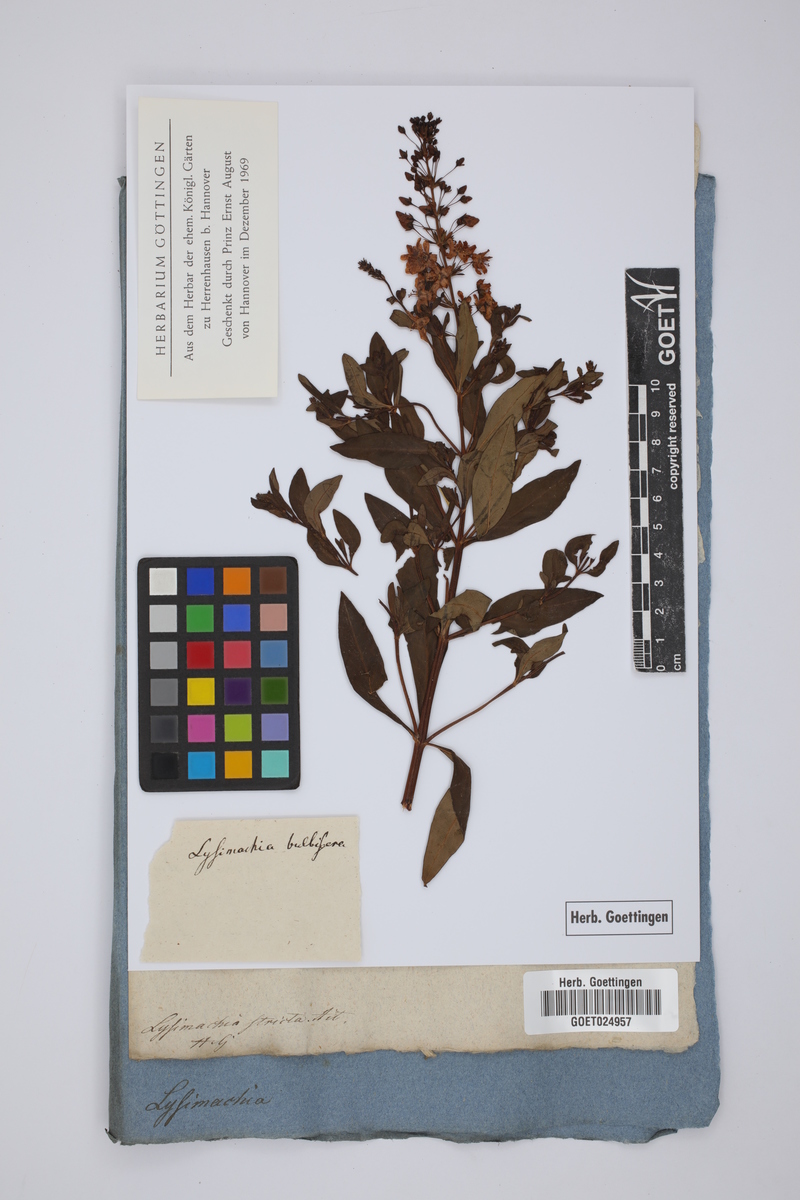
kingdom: Plantae
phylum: Tracheophyta
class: Magnoliopsida
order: Ericales
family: Primulaceae
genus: Lysimachia
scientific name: Lysimachia terrestris
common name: Lake loosestrife
